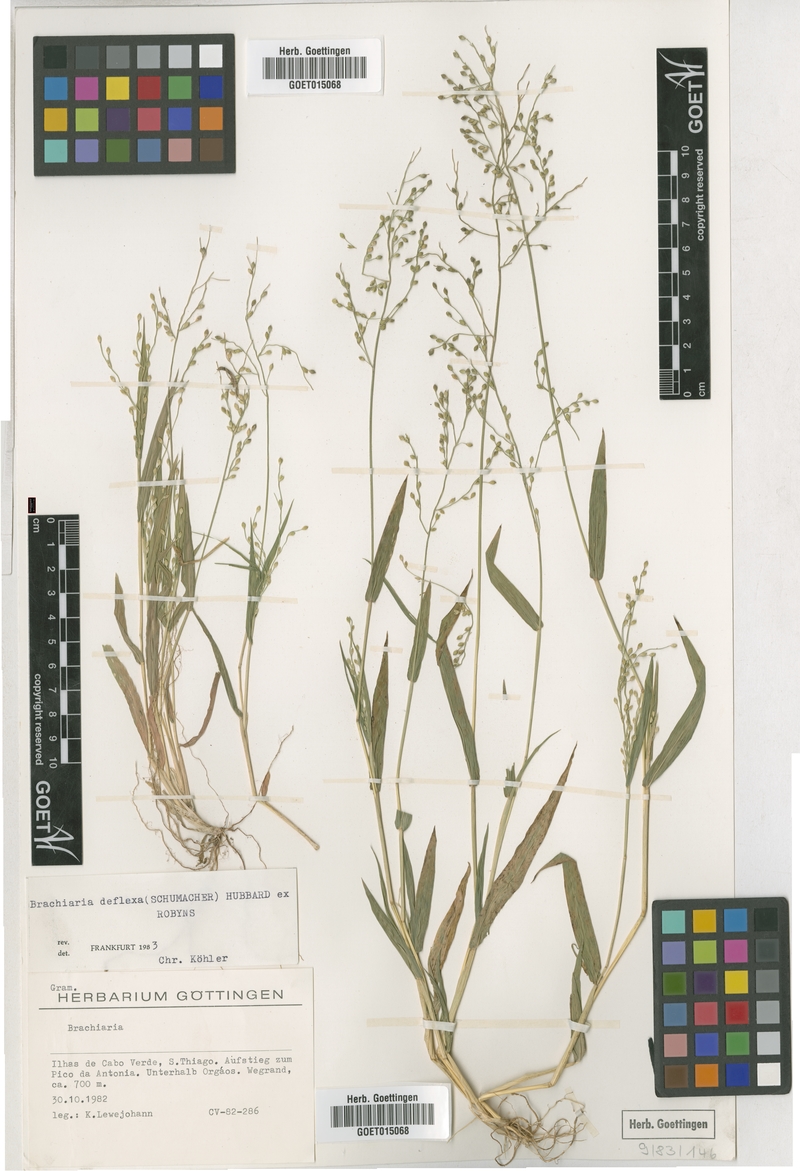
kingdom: Plantae
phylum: Tracheophyta
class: Liliopsida
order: Poales
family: Poaceae
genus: Urochloa
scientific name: Urochloa deflexa
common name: Guinea millet
